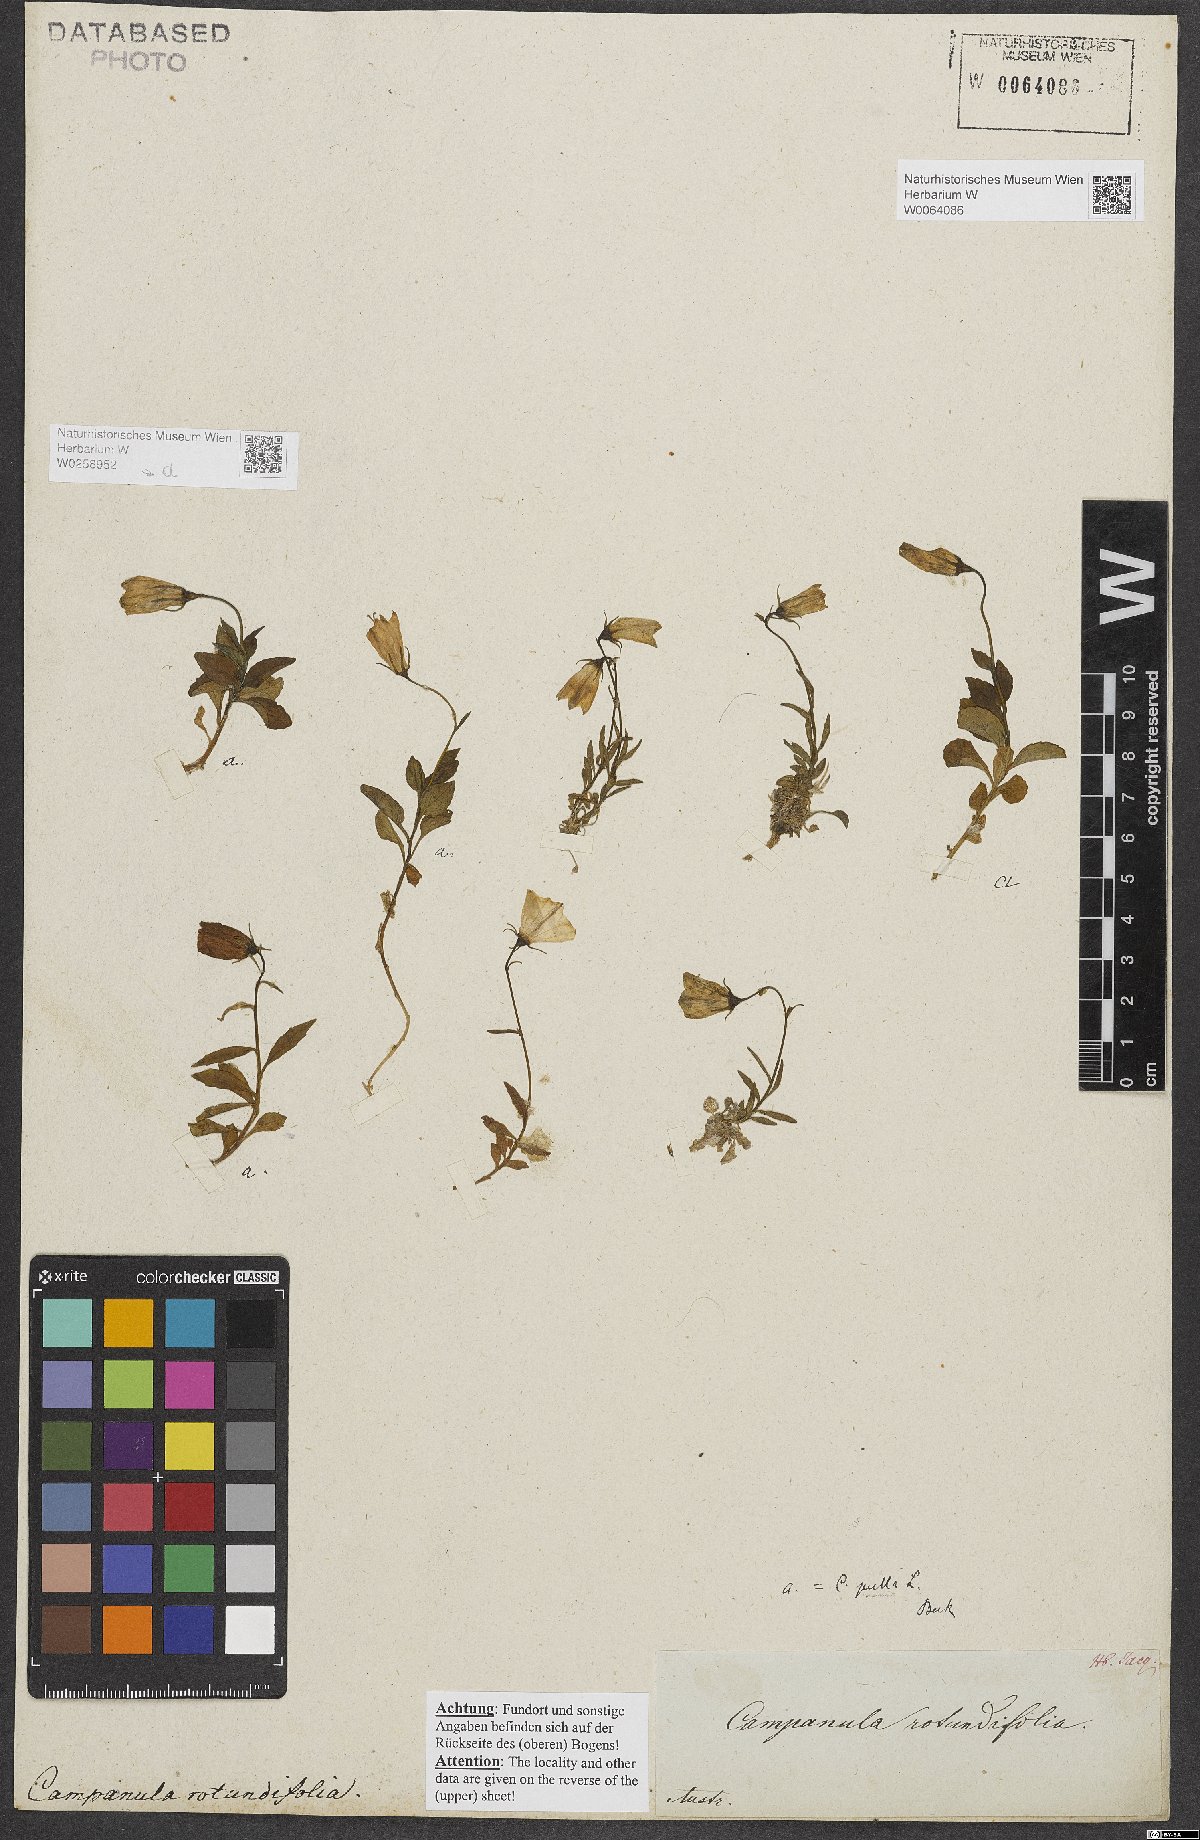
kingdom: Plantae
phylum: Tracheophyta
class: Magnoliopsida
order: Asterales
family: Campanulaceae
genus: Campanula
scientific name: Campanula pulla
